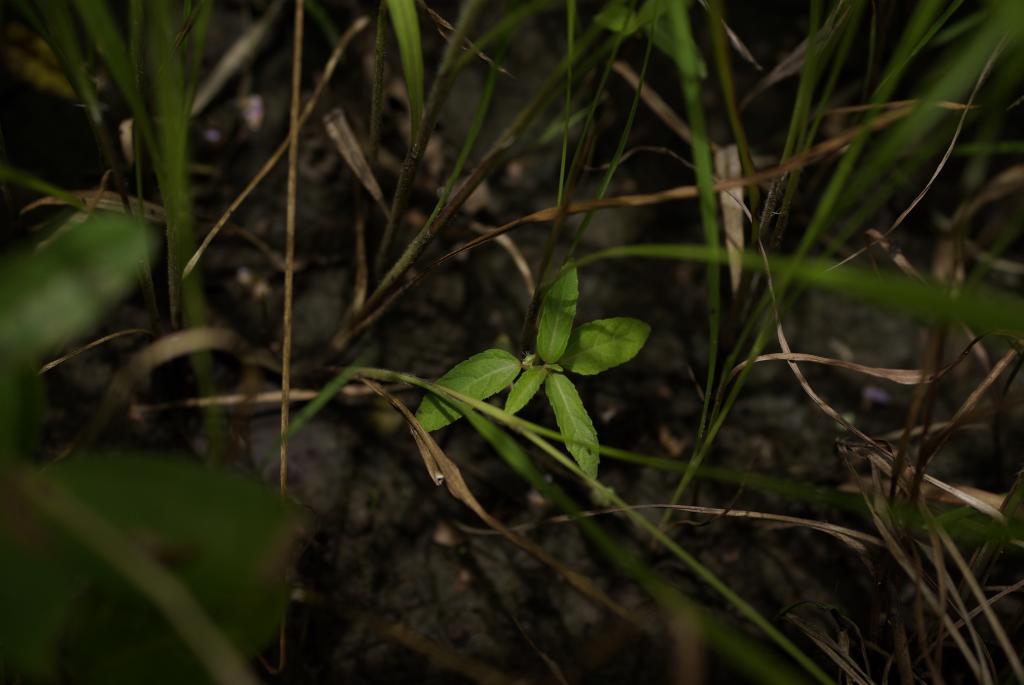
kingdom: Plantae
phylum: Tracheophyta
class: Magnoliopsida
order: Malpighiales
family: Euphorbiaceae
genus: Acalypha
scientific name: Acalypha australis
